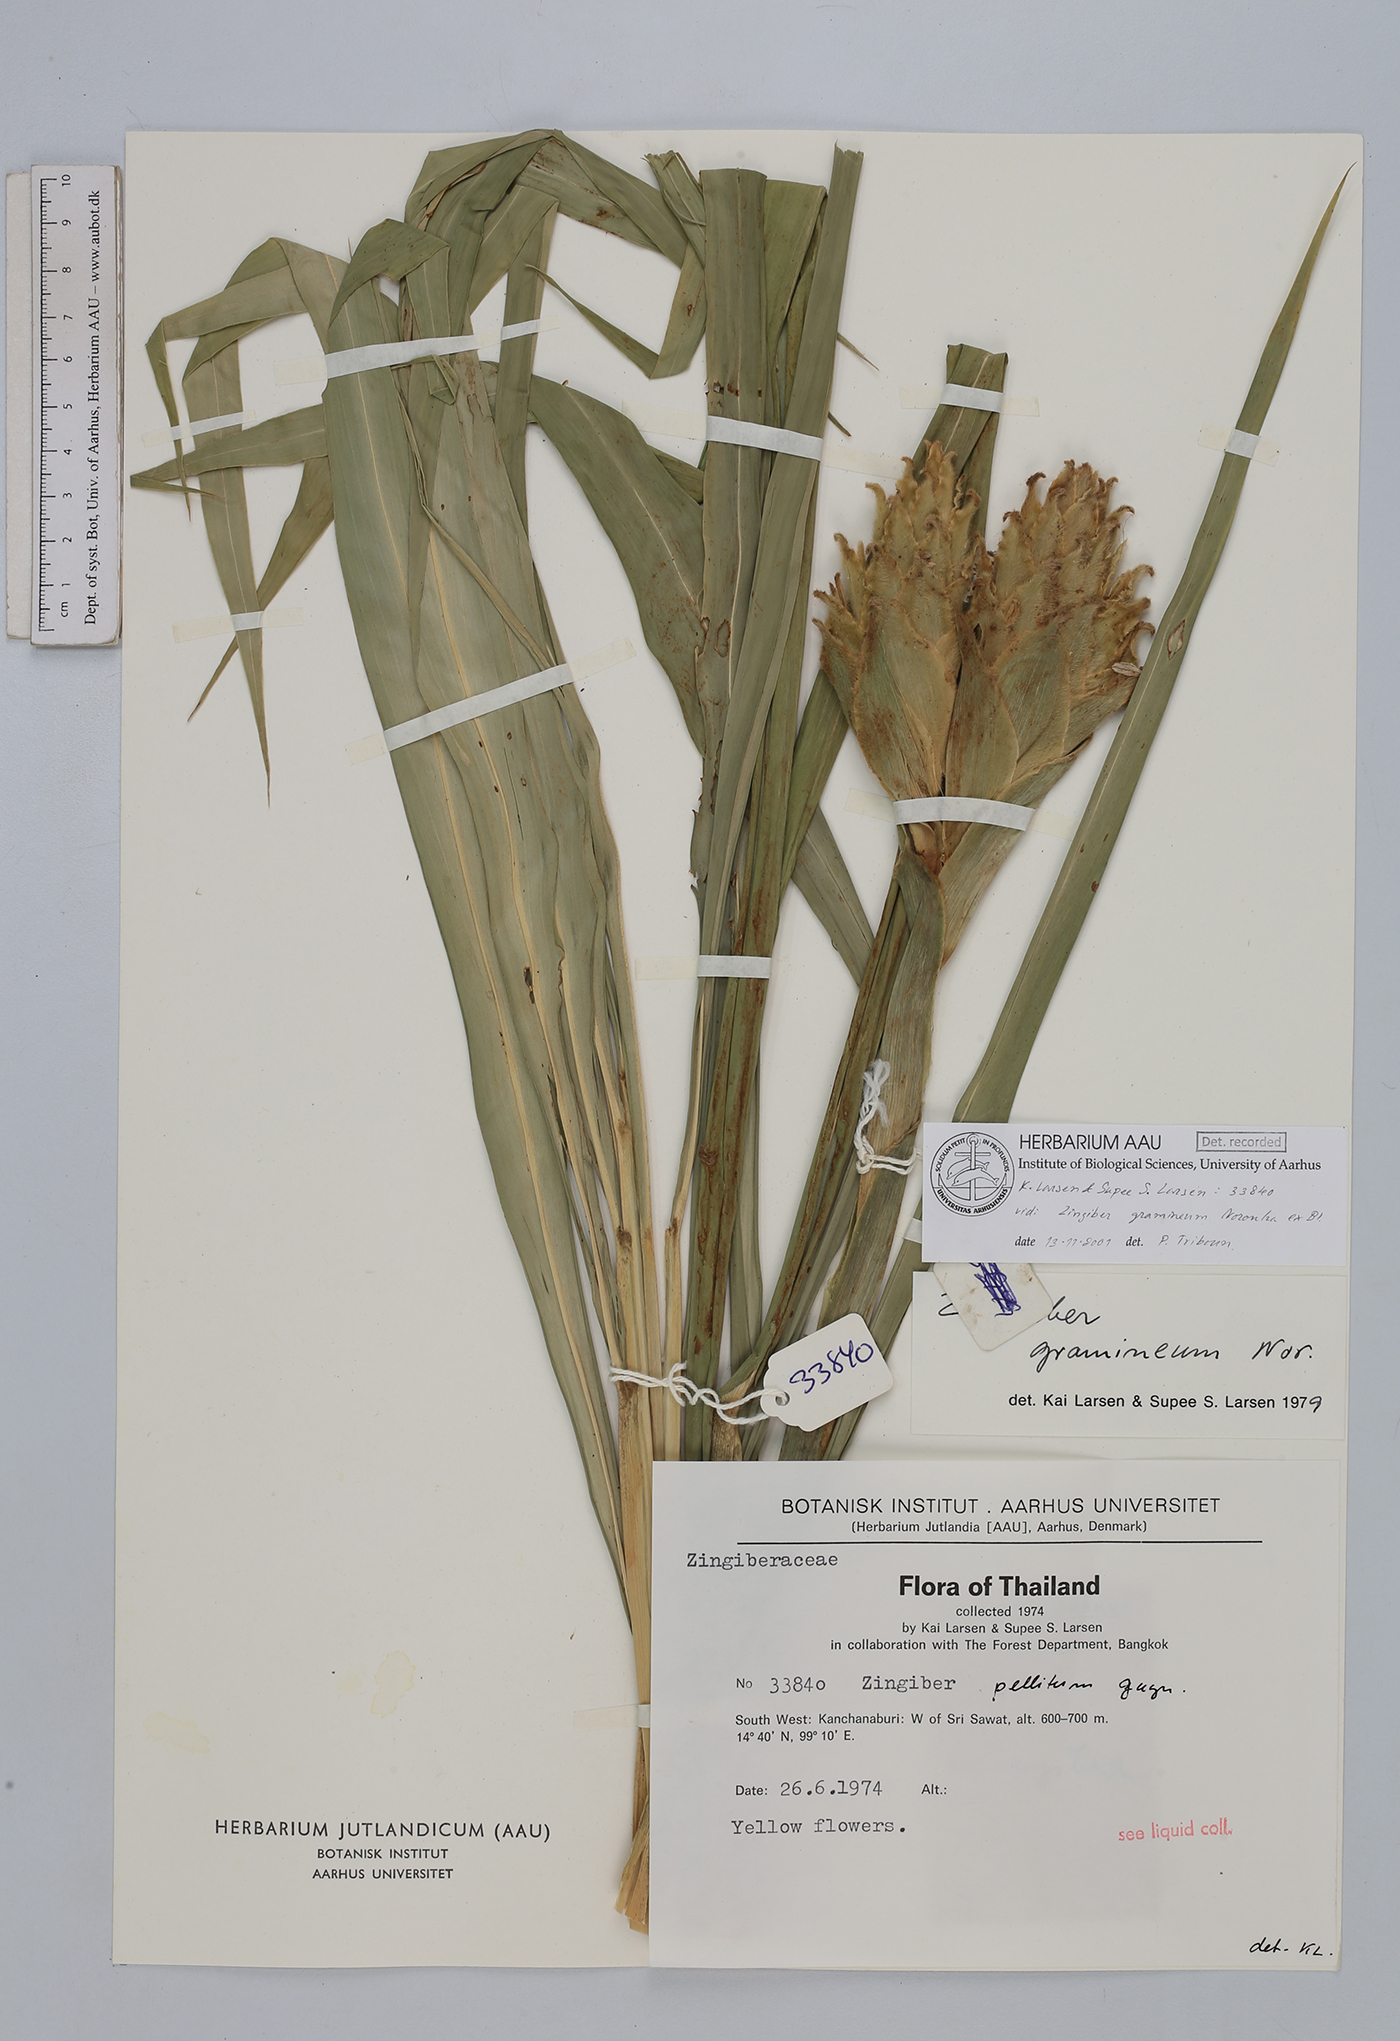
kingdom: Plantae
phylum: Tracheophyta
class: Liliopsida
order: Zingiberales
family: Zingiberaceae
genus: Zingiber
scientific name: Zingiber gramineum
